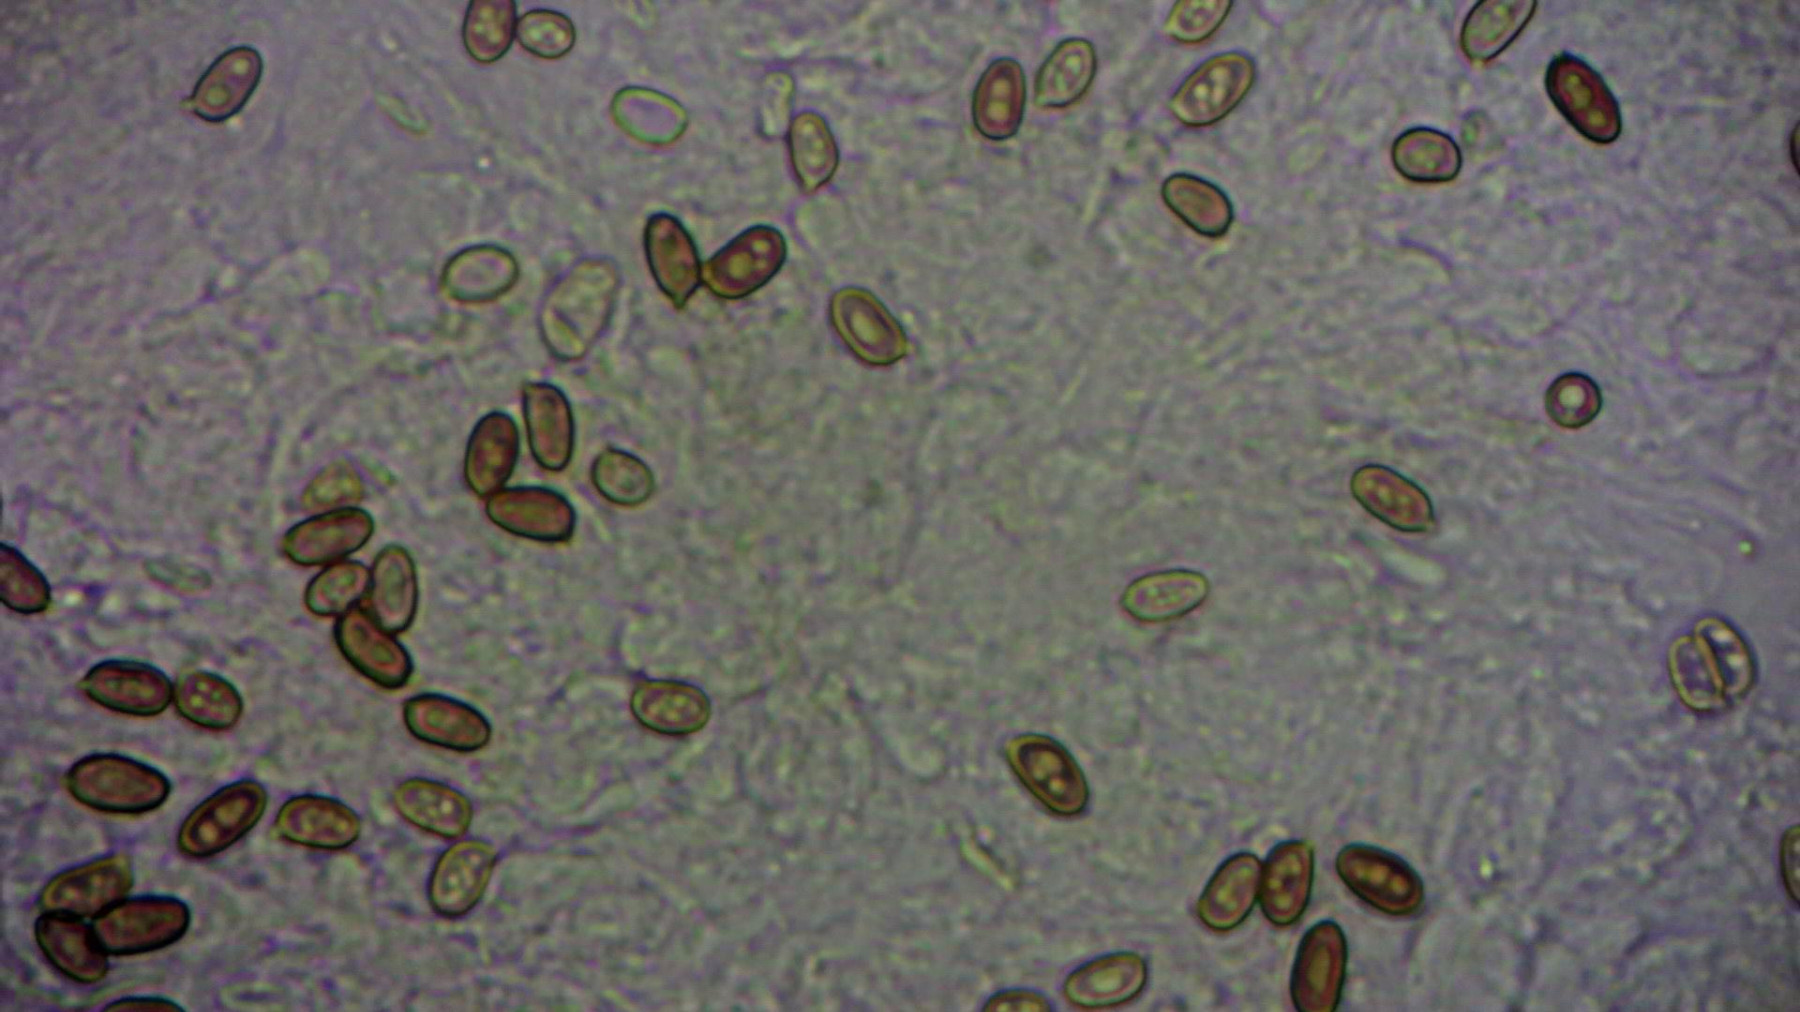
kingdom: Fungi
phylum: Basidiomycota
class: Agaricomycetes
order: Agaricales
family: Agaricaceae
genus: Agaricus
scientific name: Agaricus
